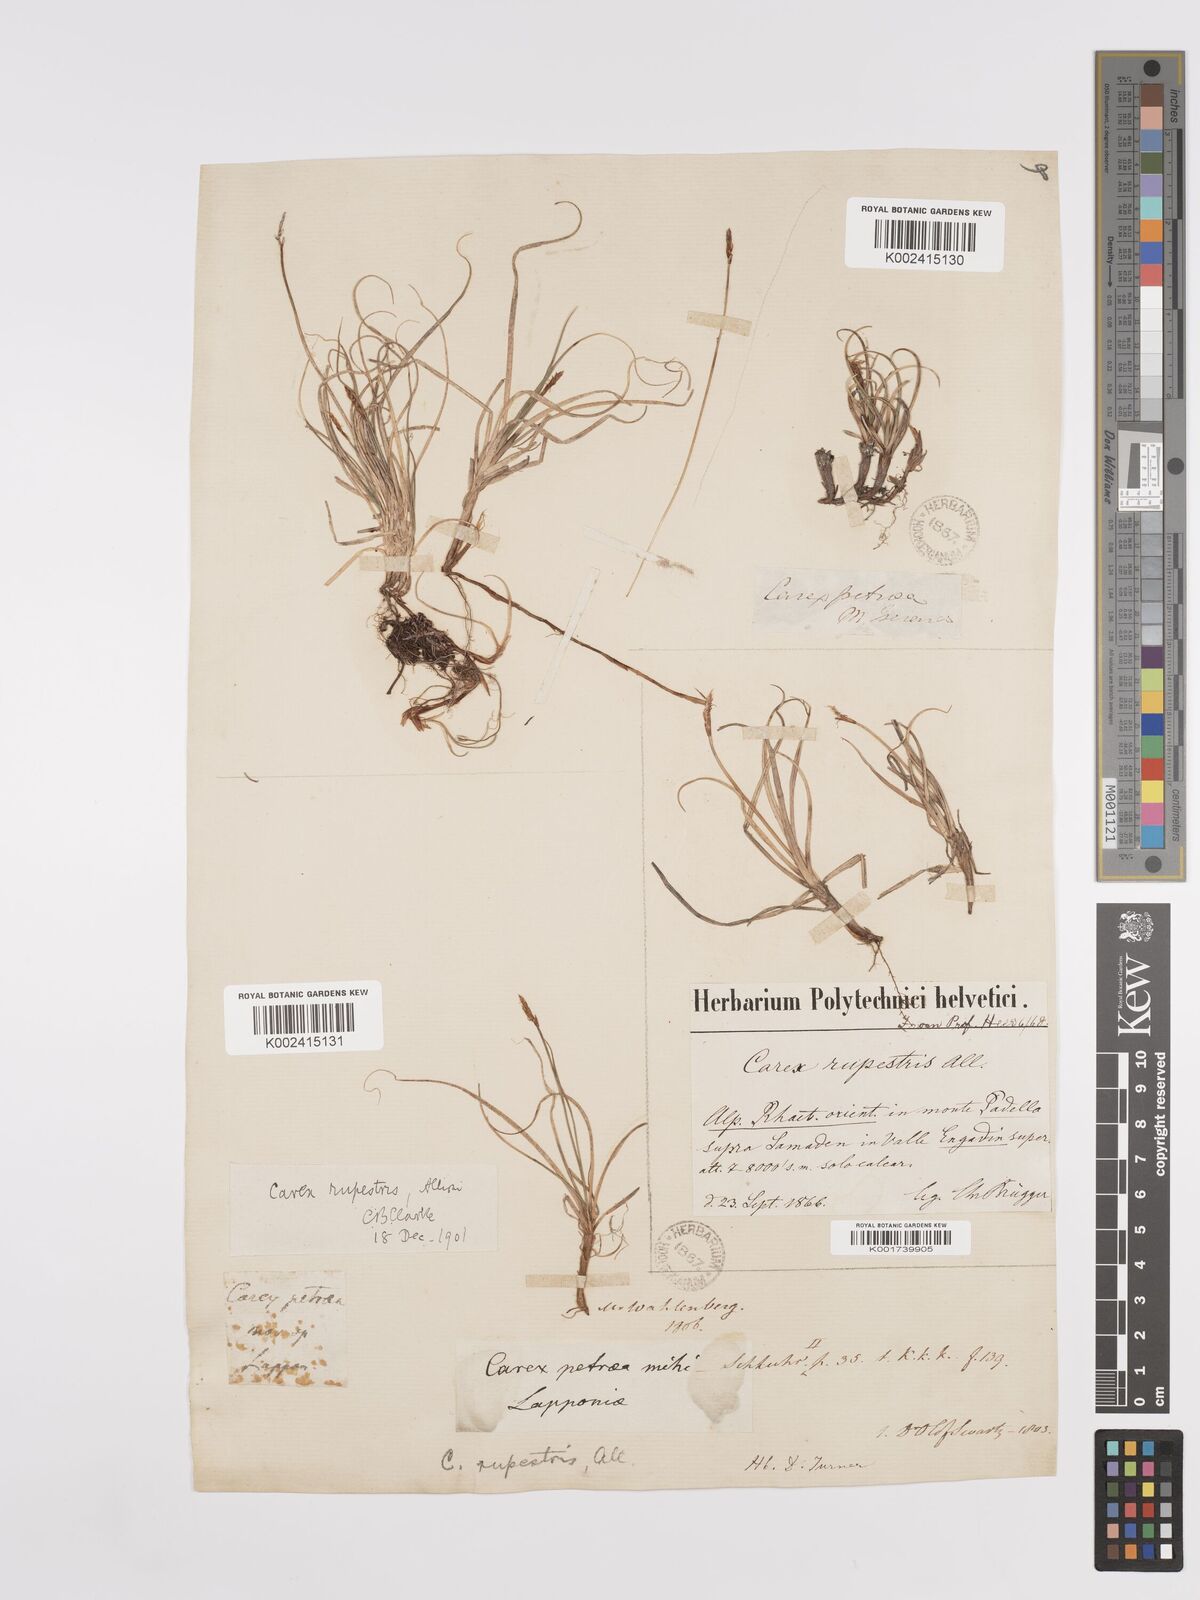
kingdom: Plantae
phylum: Tracheophyta
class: Liliopsida
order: Poales
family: Cyperaceae
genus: Carex
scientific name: Carex rupestris
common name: Rock sedge
